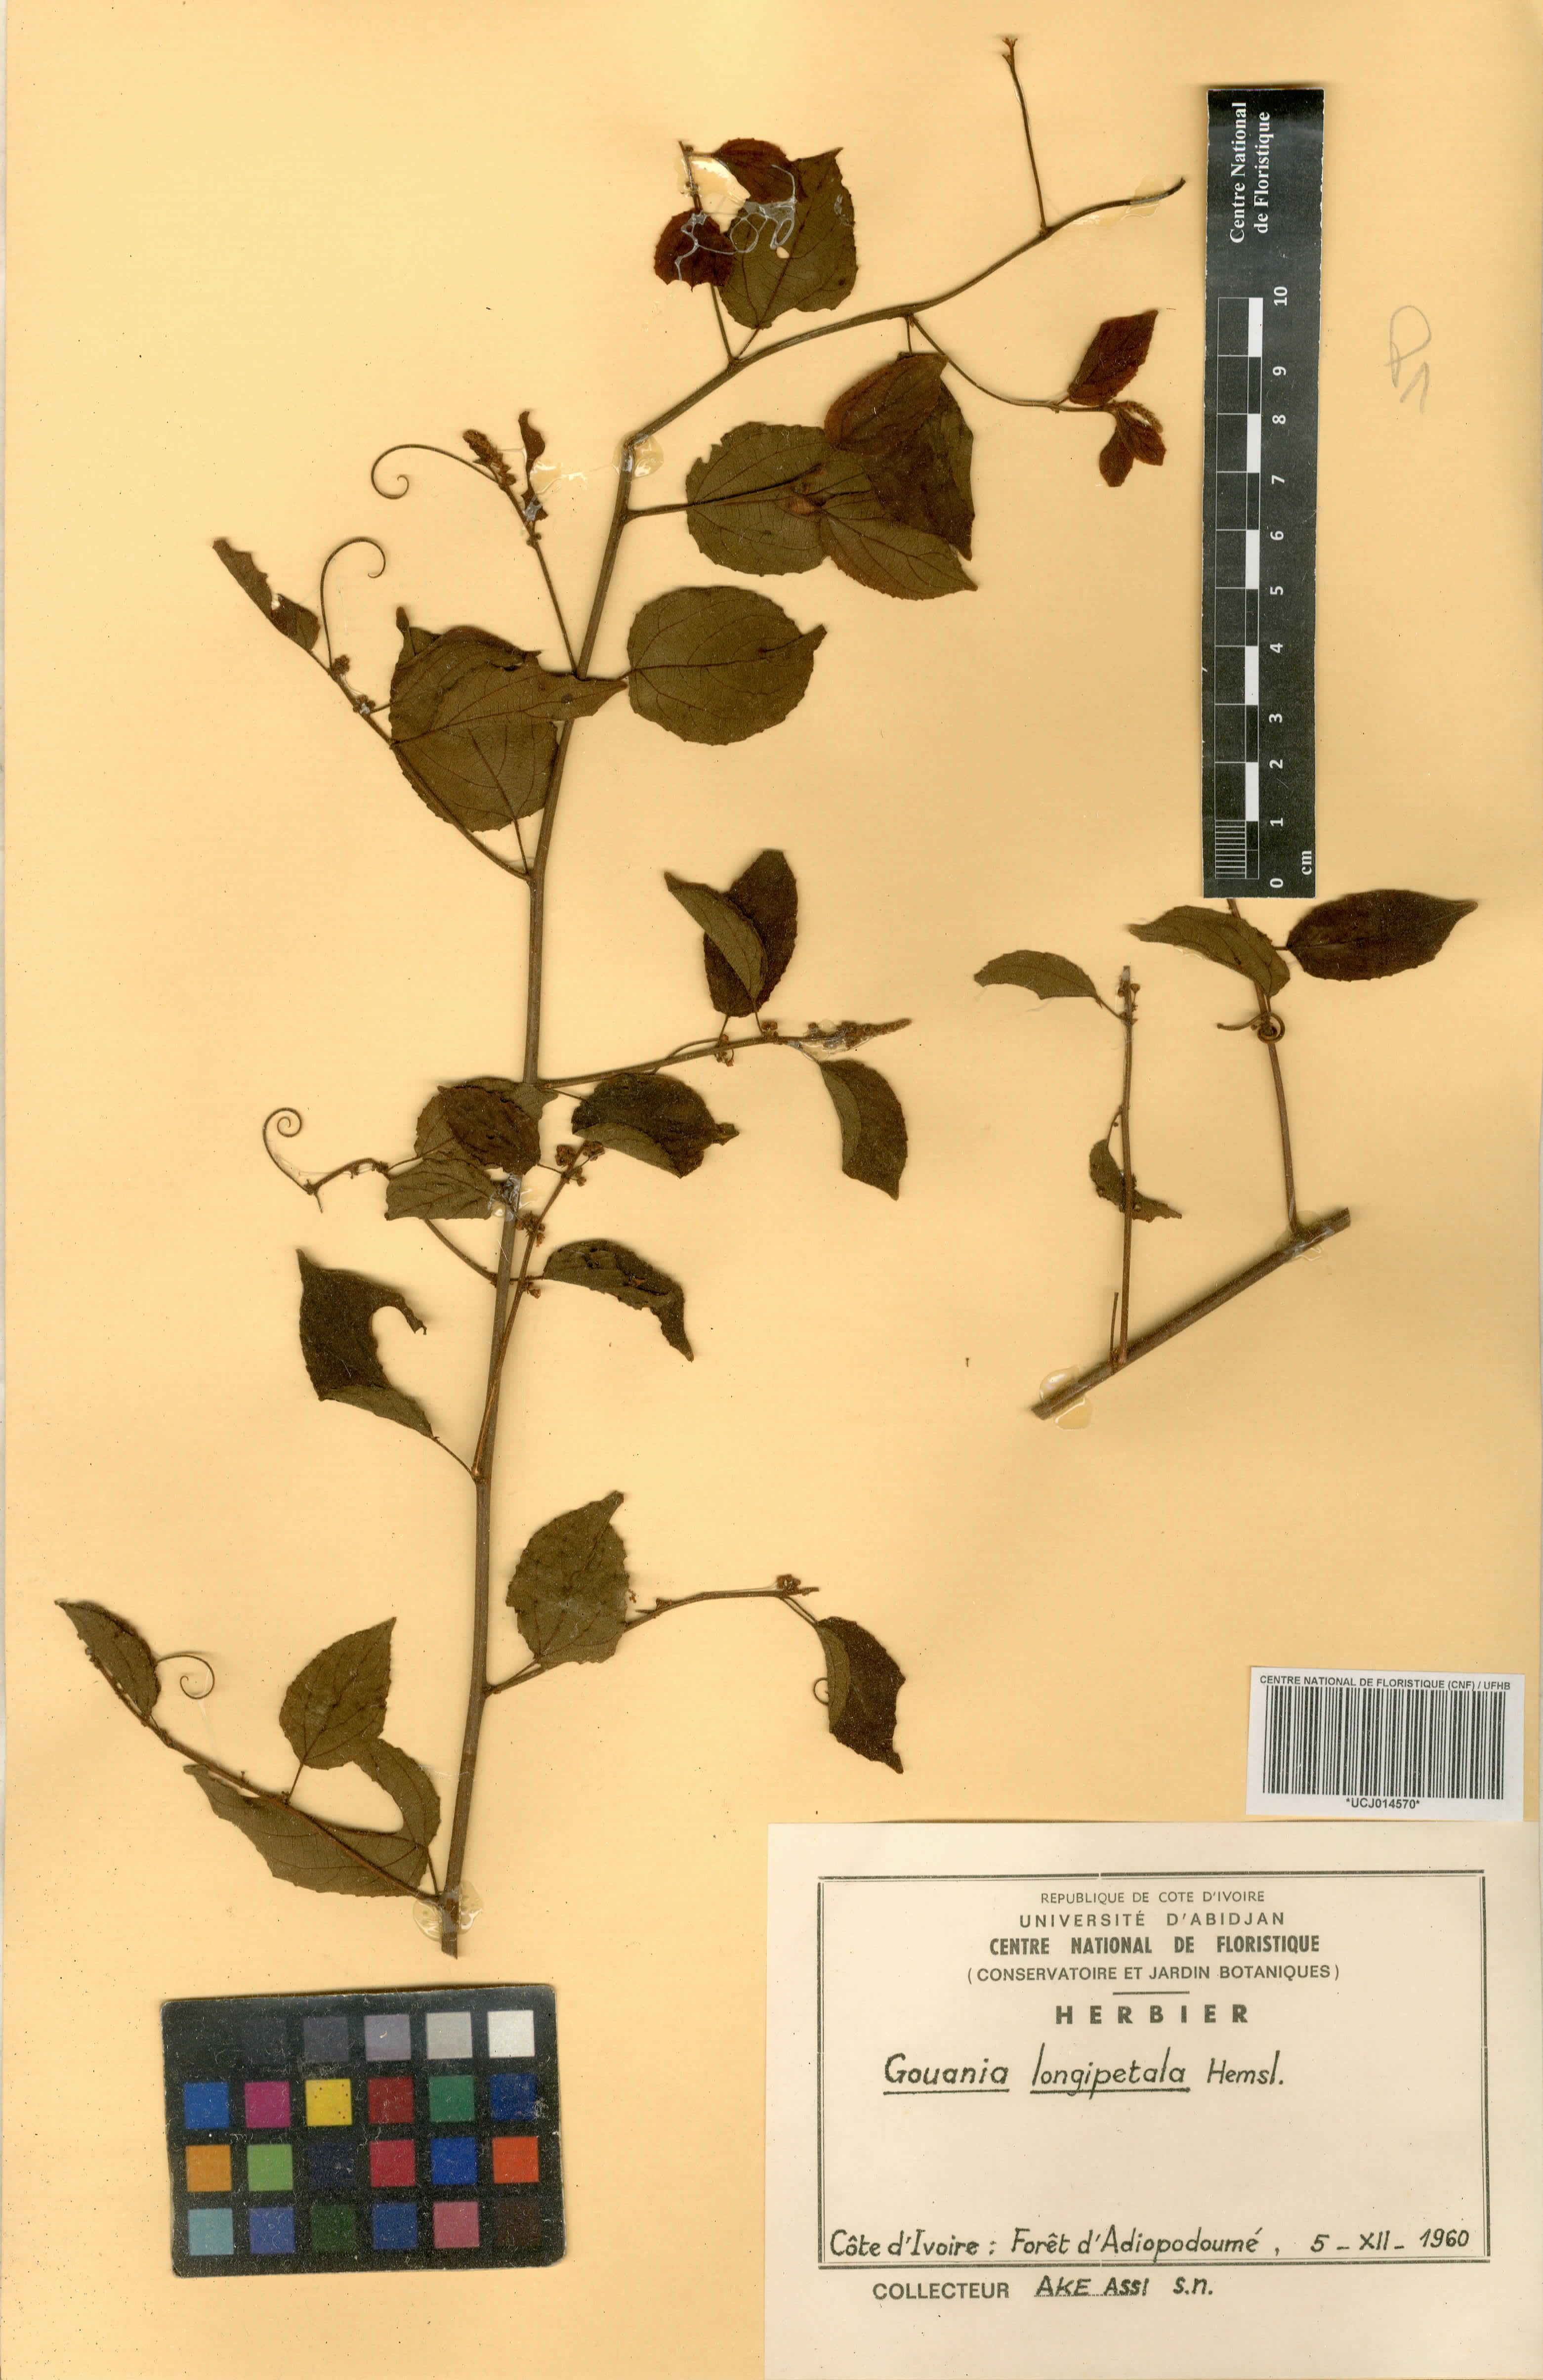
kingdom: Plantae
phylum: Tracheophyta
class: Magnoliopsida
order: Rosales
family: Rhamnaceae
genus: Gouania
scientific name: Gouania longipetala
